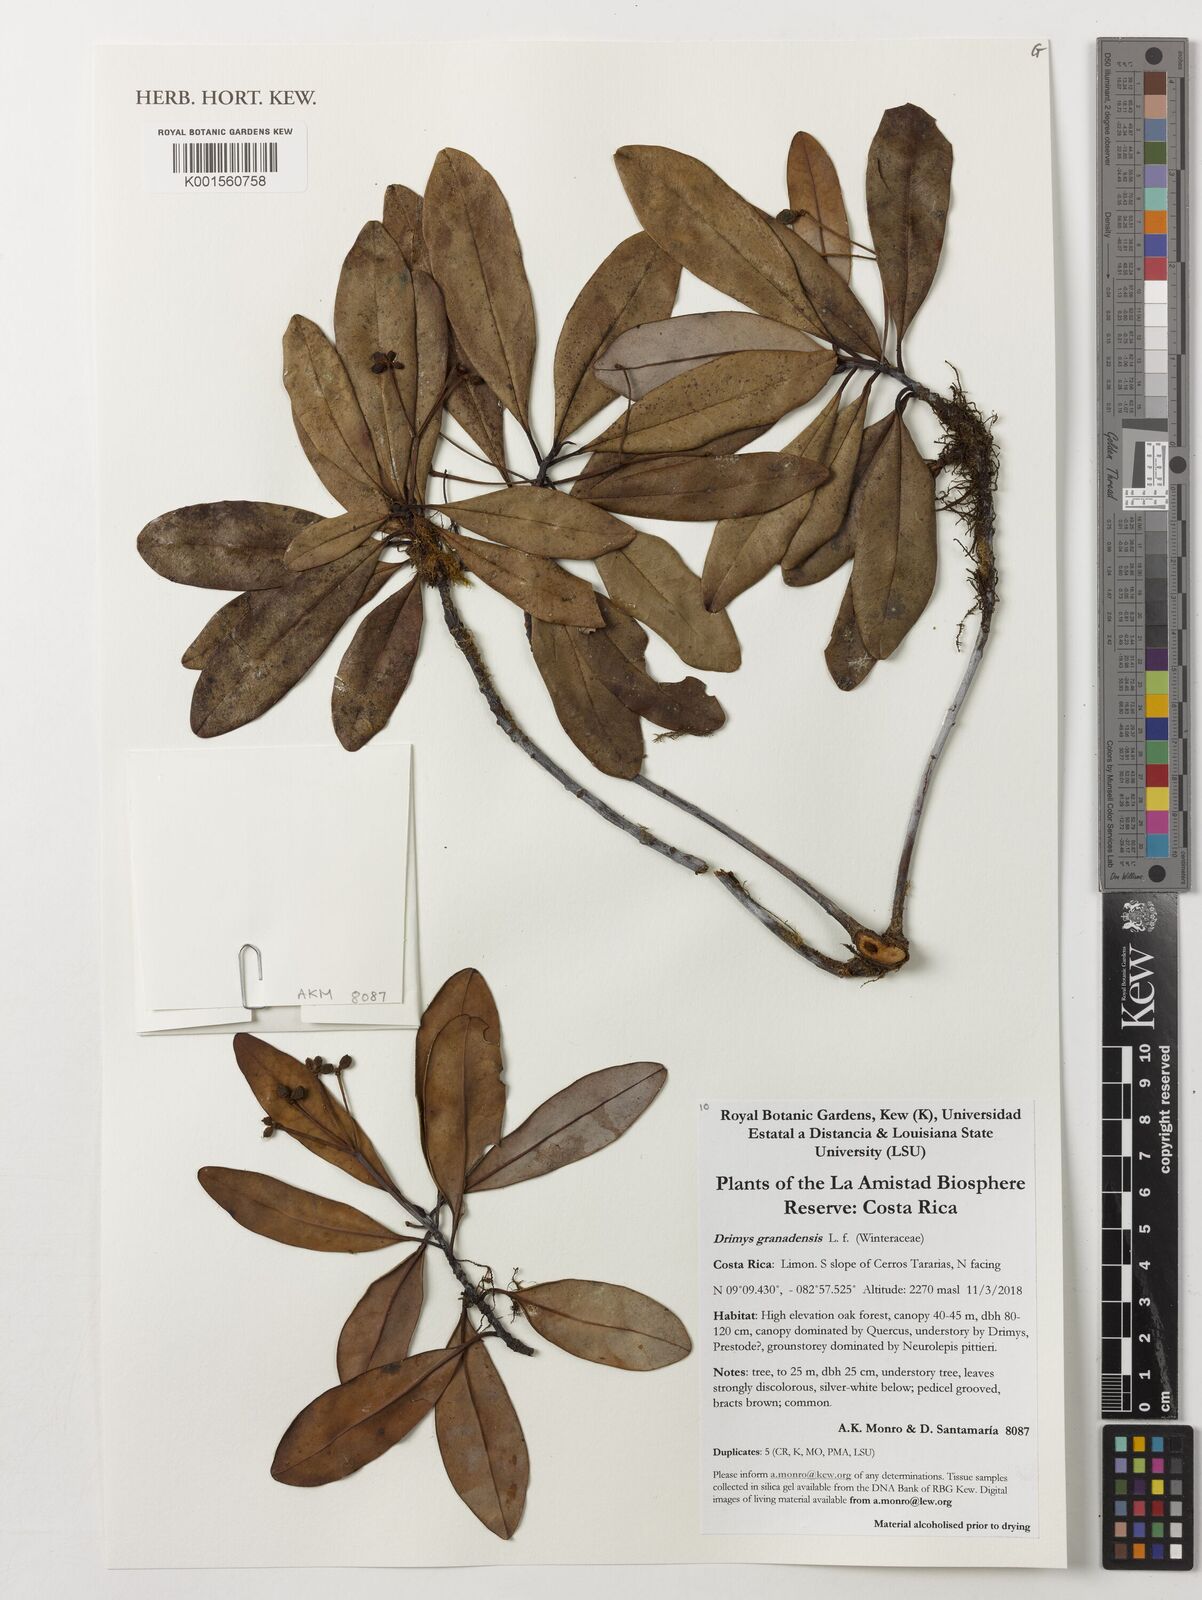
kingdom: Plantae
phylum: Tracheophyta
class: Magnoliopsida
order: Canellales
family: Winteraceae
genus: Drimys
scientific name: Drimys granadensis
